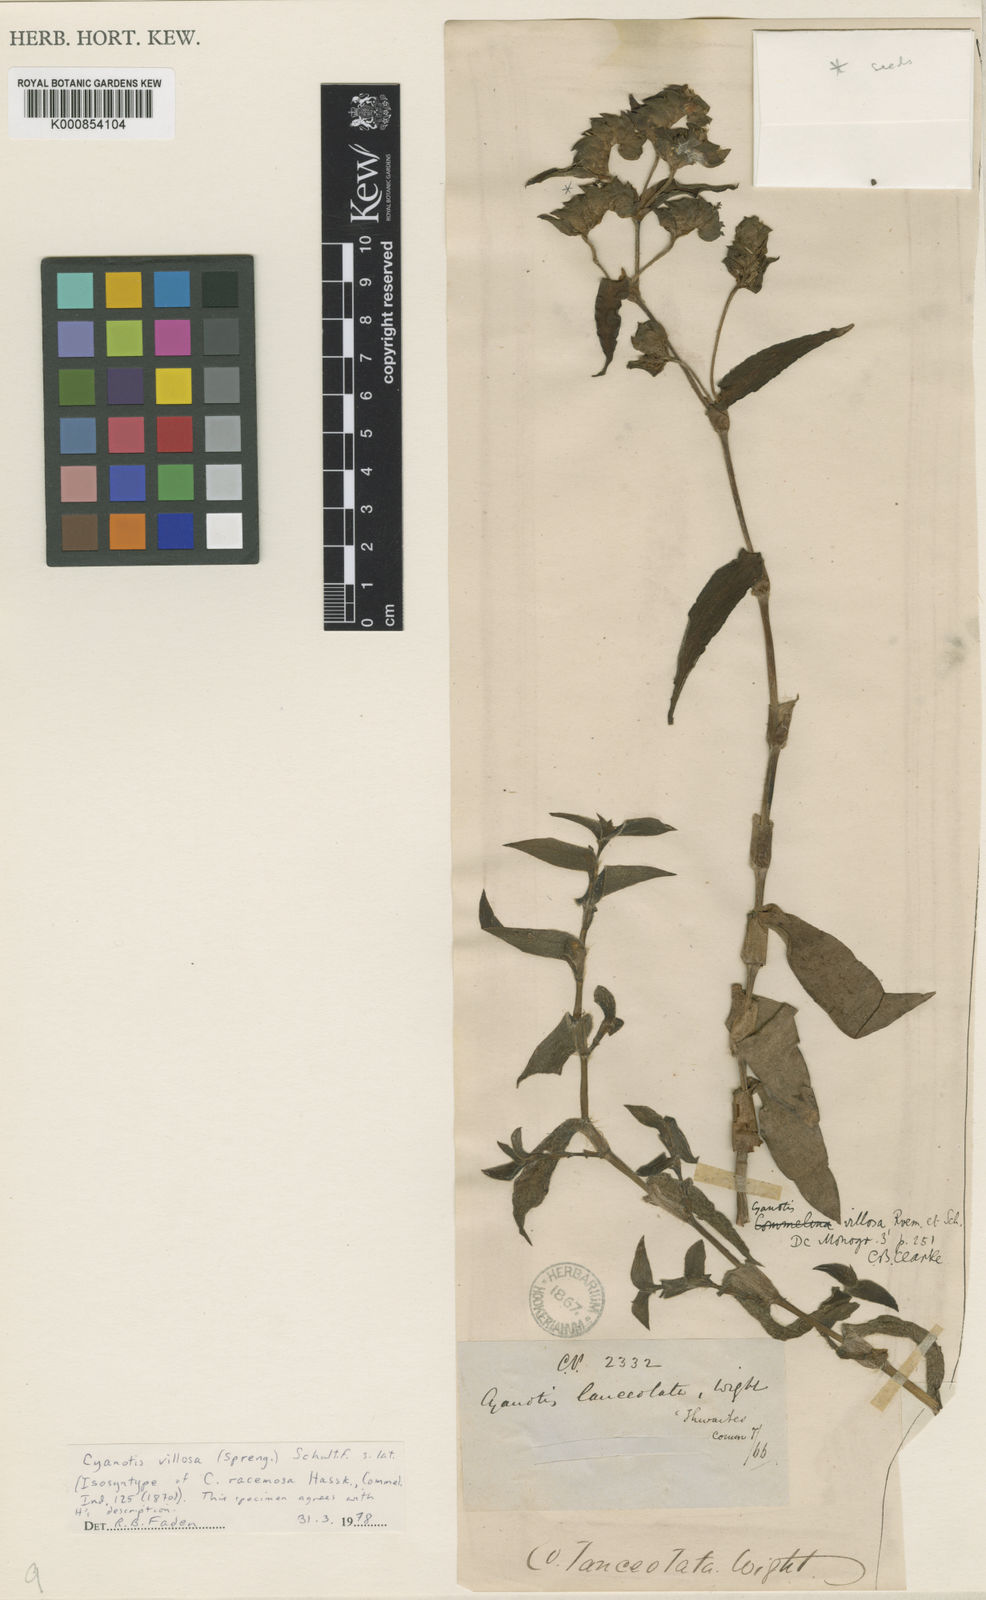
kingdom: Plantae
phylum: Tracheophyta
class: Liliopsida
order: Commelinales
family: Commelinaceae
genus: Cyanotis
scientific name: Cyanotis villosa
